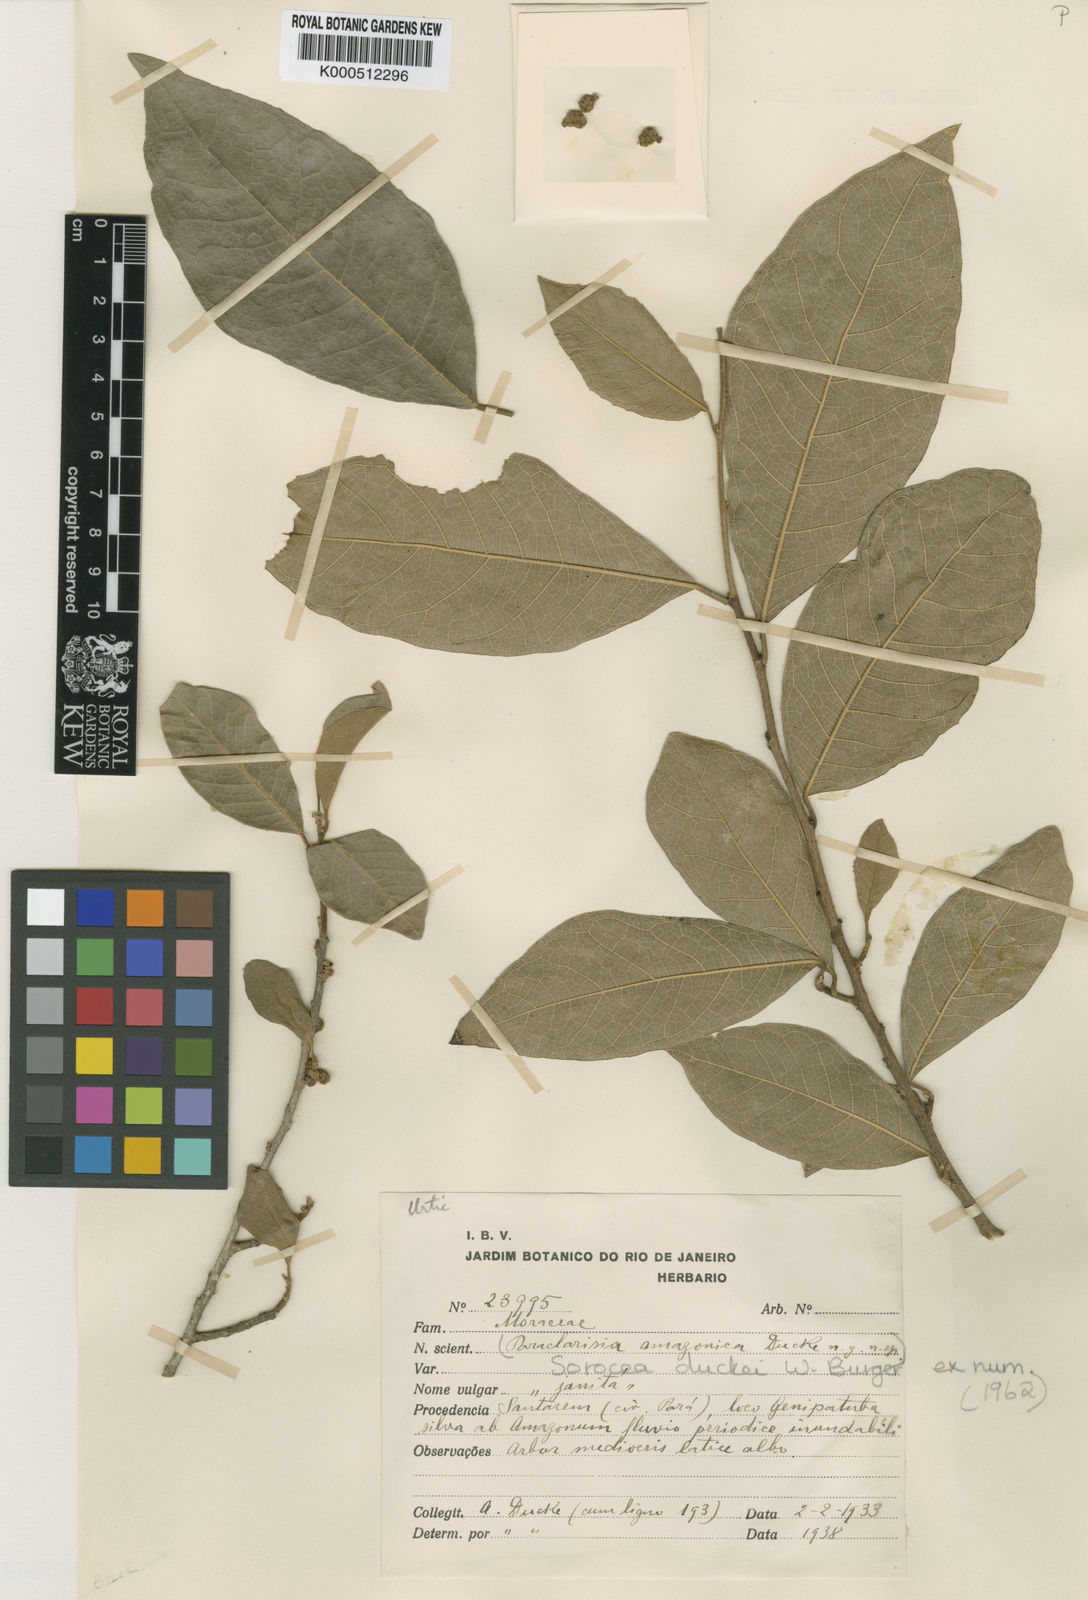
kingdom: Plantae
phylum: Tracheophyta
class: Magnoliopsida
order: Rosales
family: Moraceae
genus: Sorocea
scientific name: Sorocea duckei
